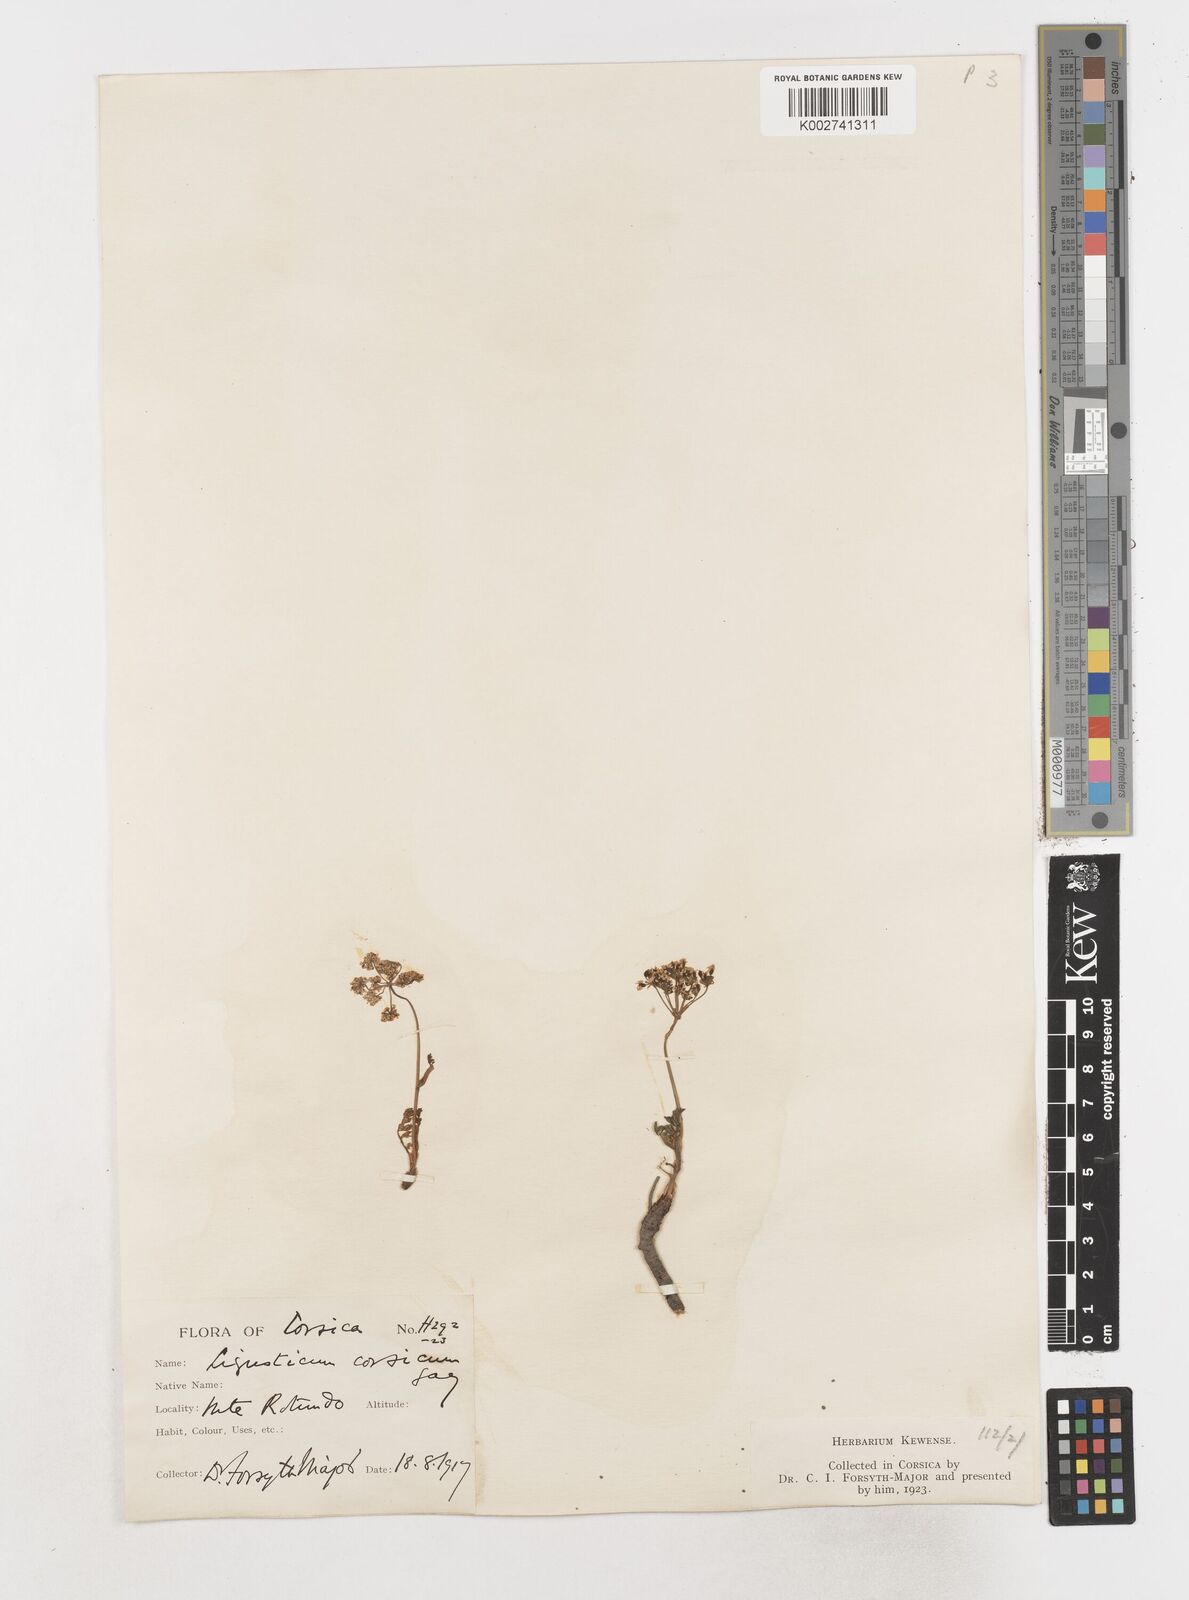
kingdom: Plantae
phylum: Tracheophyta
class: Magnoliopsida
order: Apiales
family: Apiaceae
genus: Mutellina
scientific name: Mutellina adonidifolia
